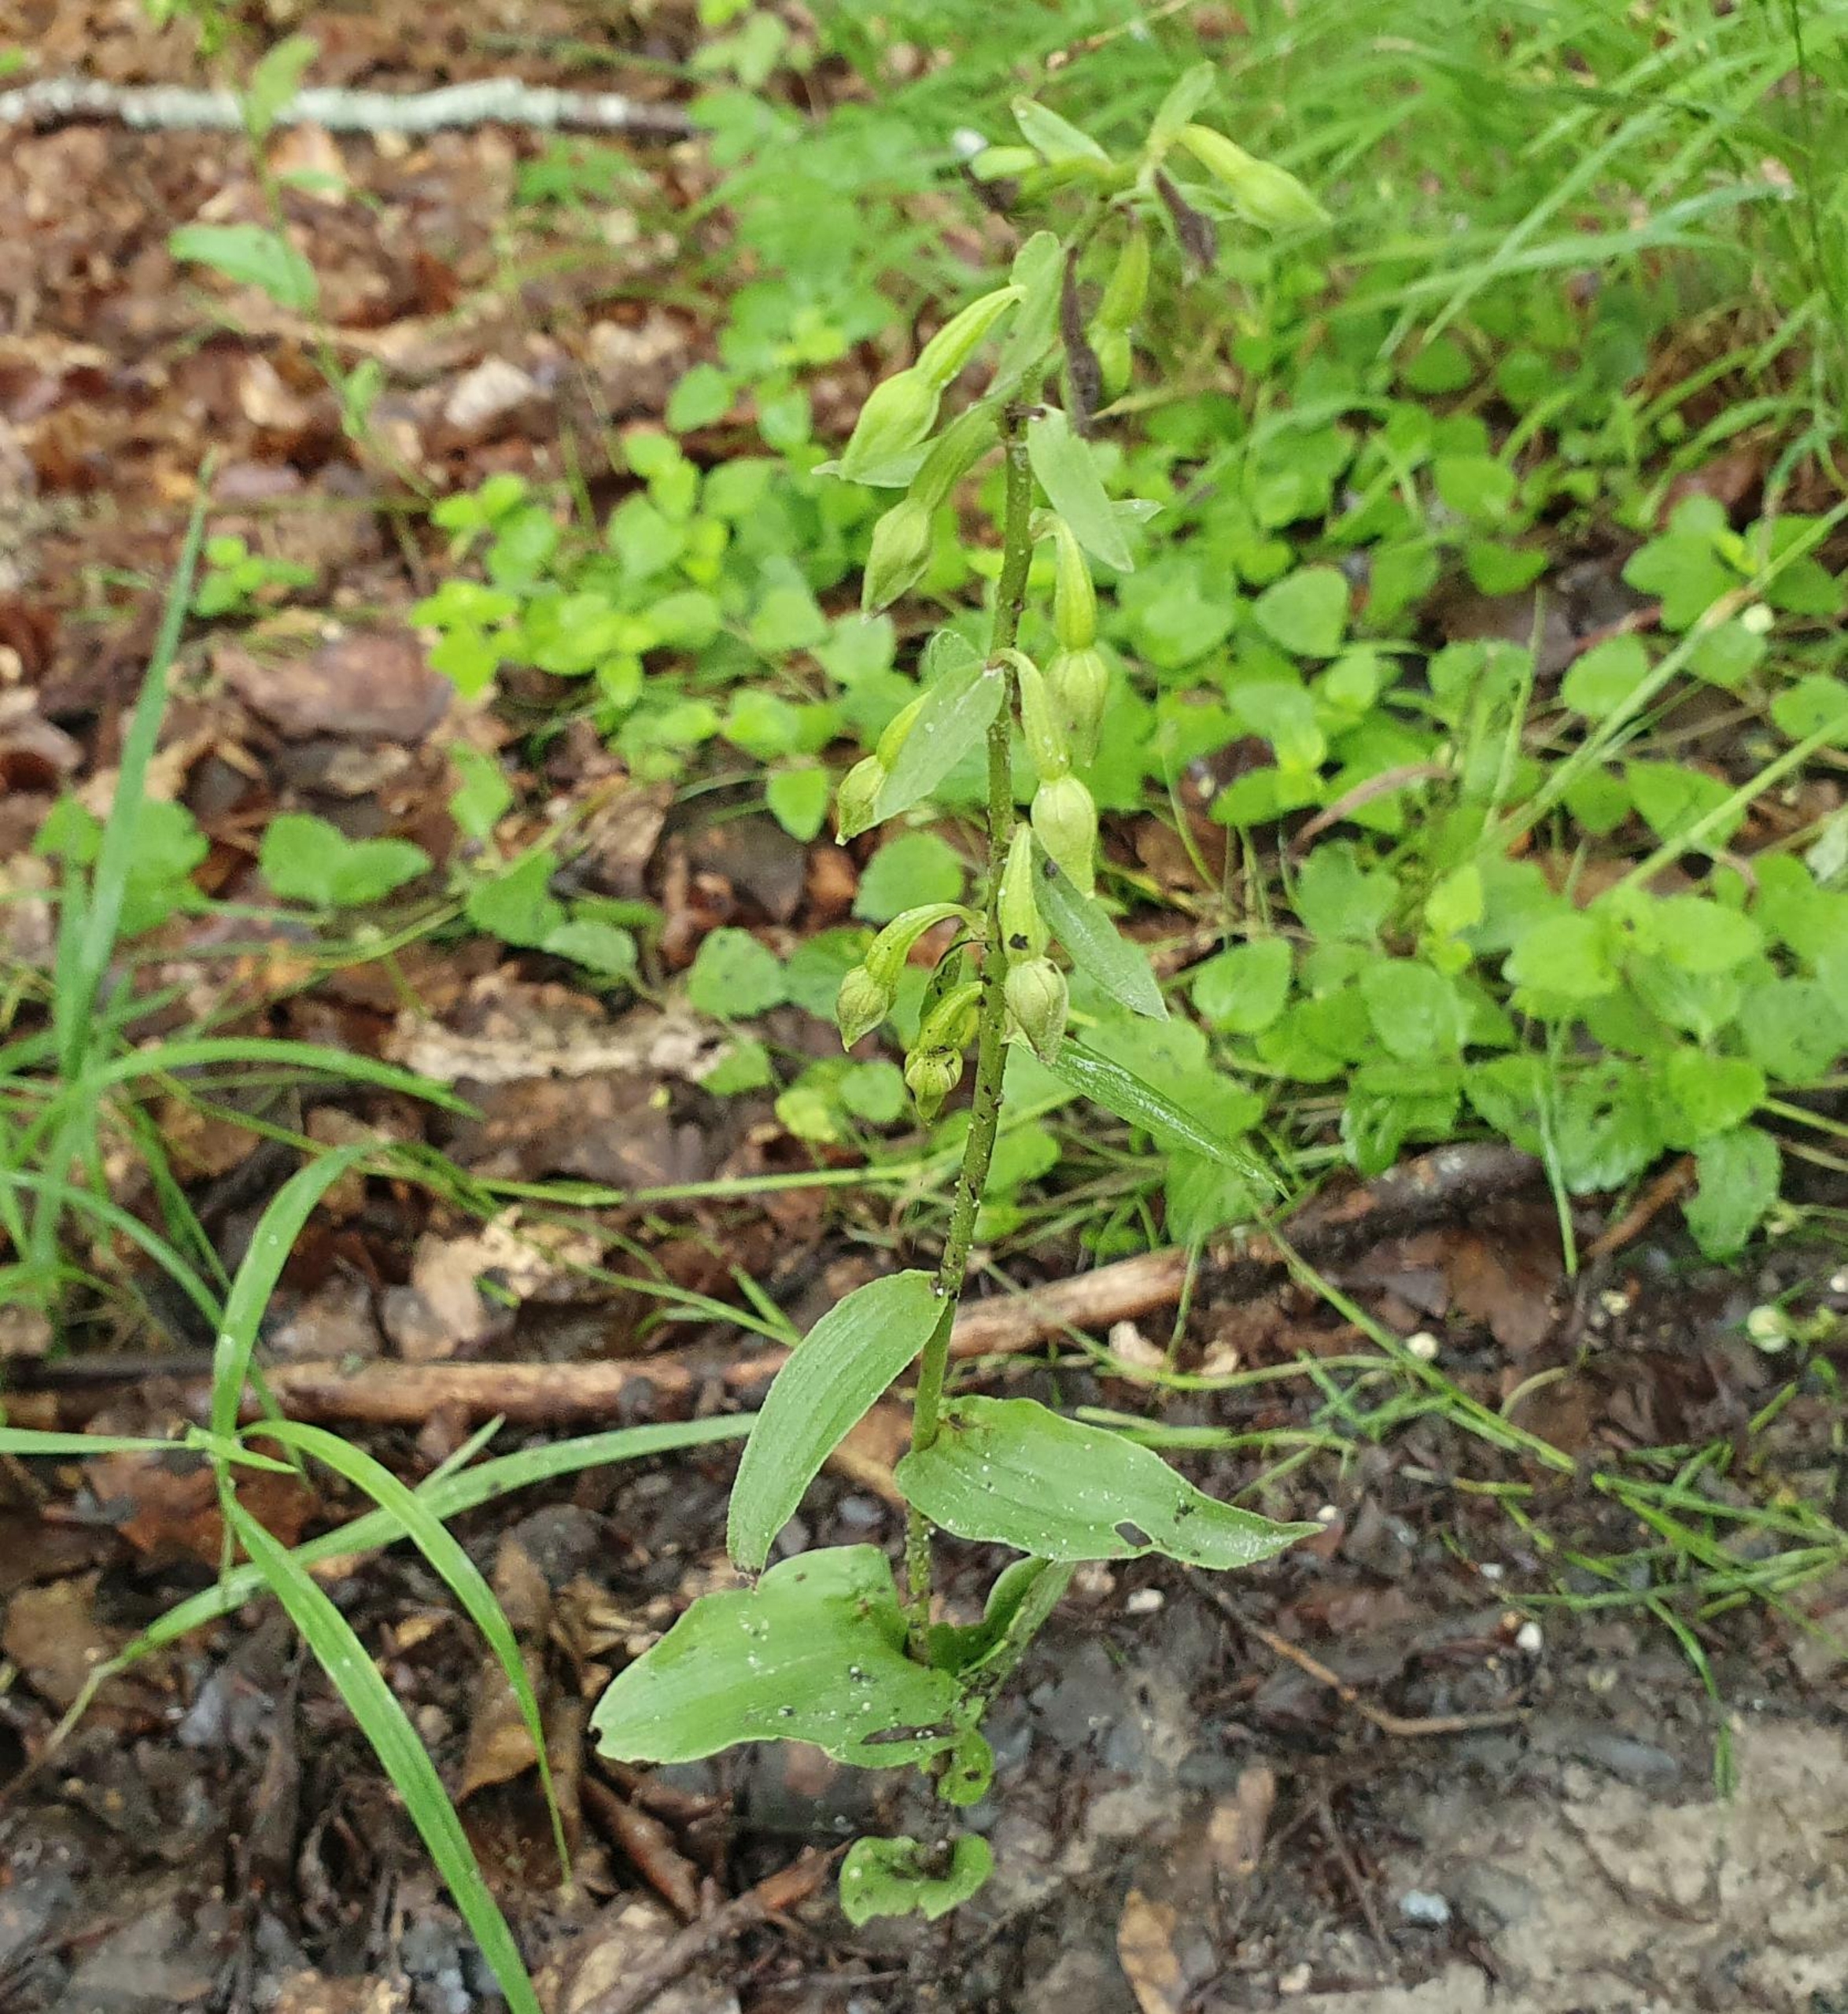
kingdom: Plantae
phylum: Tracheophyta
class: Liliopsida
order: Asparagales
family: Orchidaceae
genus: Epipactis
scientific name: Epipactis phyllanthes
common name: Nikkende hullæbe
